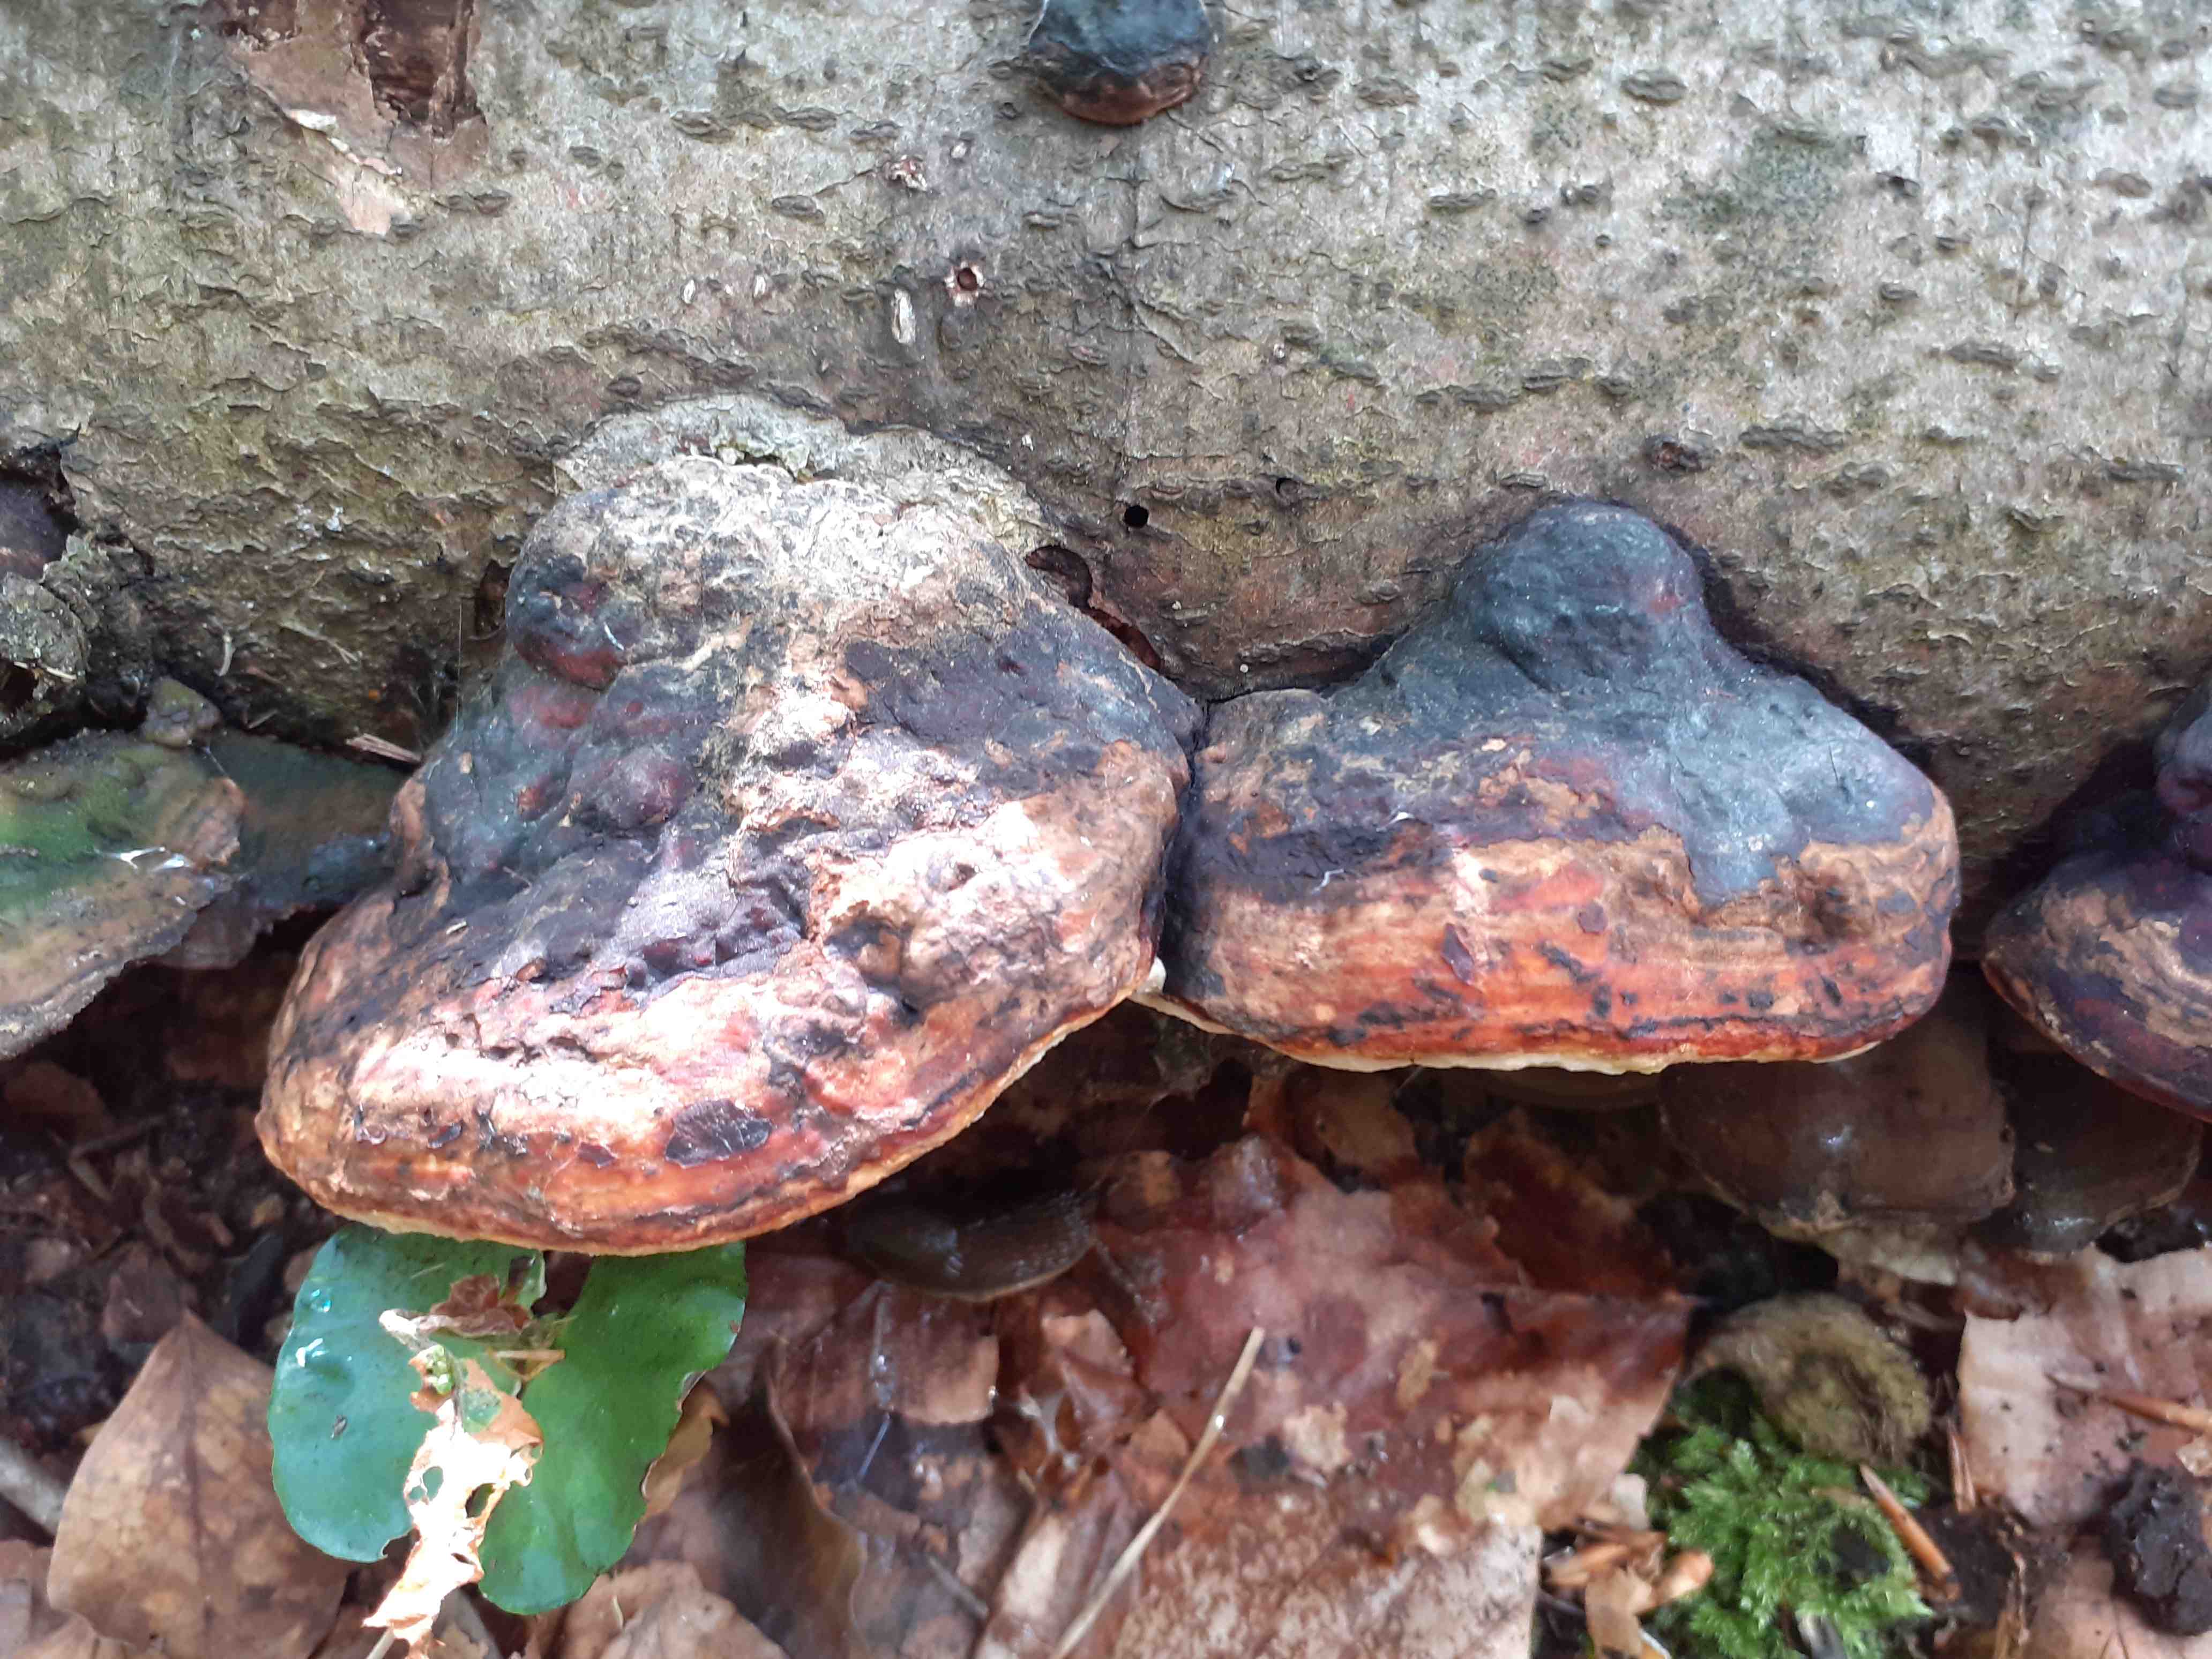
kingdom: Fungi
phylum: Basidiomycota
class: Agaricomycetes
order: Polyporales
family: Fomitopsidaceae
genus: Fomitopsis
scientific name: Fomitopsis pinicola
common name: randbæltet hovporesvamp
